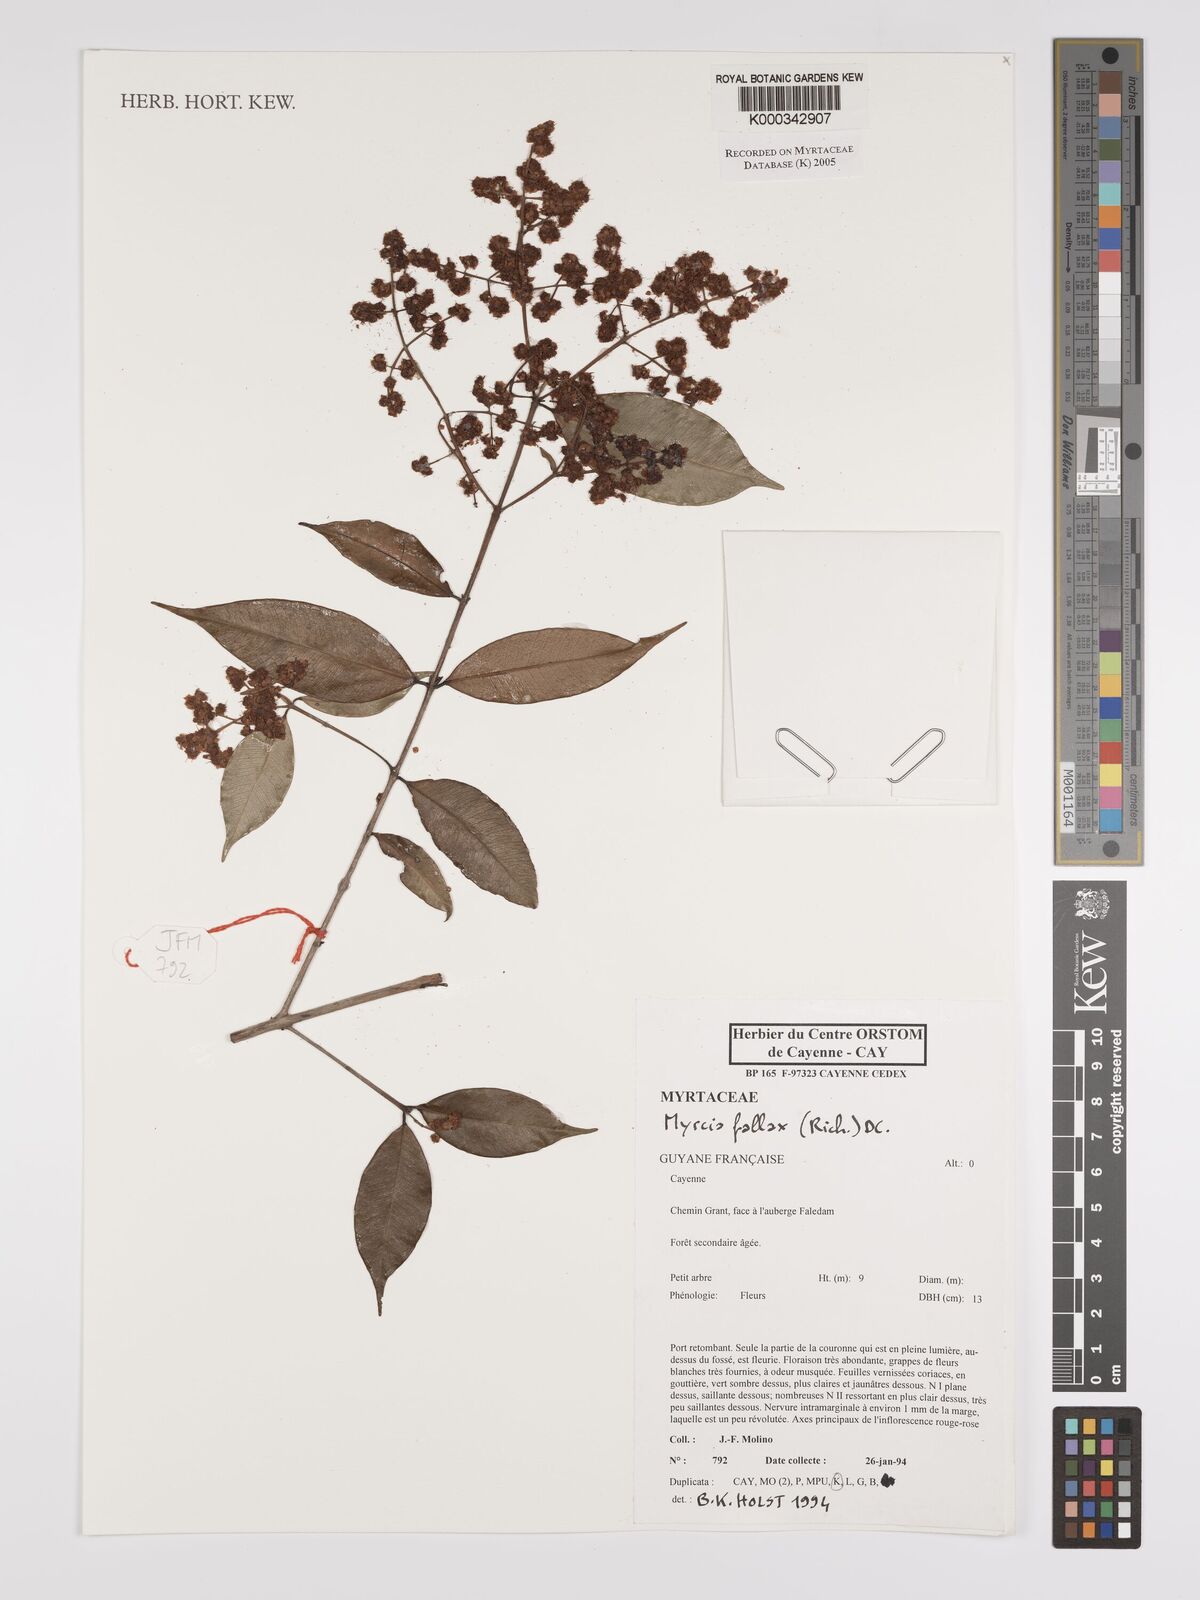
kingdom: Plantae
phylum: Tracheophyta
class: Magnoliopsida
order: Myrtales
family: Myrtaceae
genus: Myrcia
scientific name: Myrcia splendens
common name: Surinam cherry
